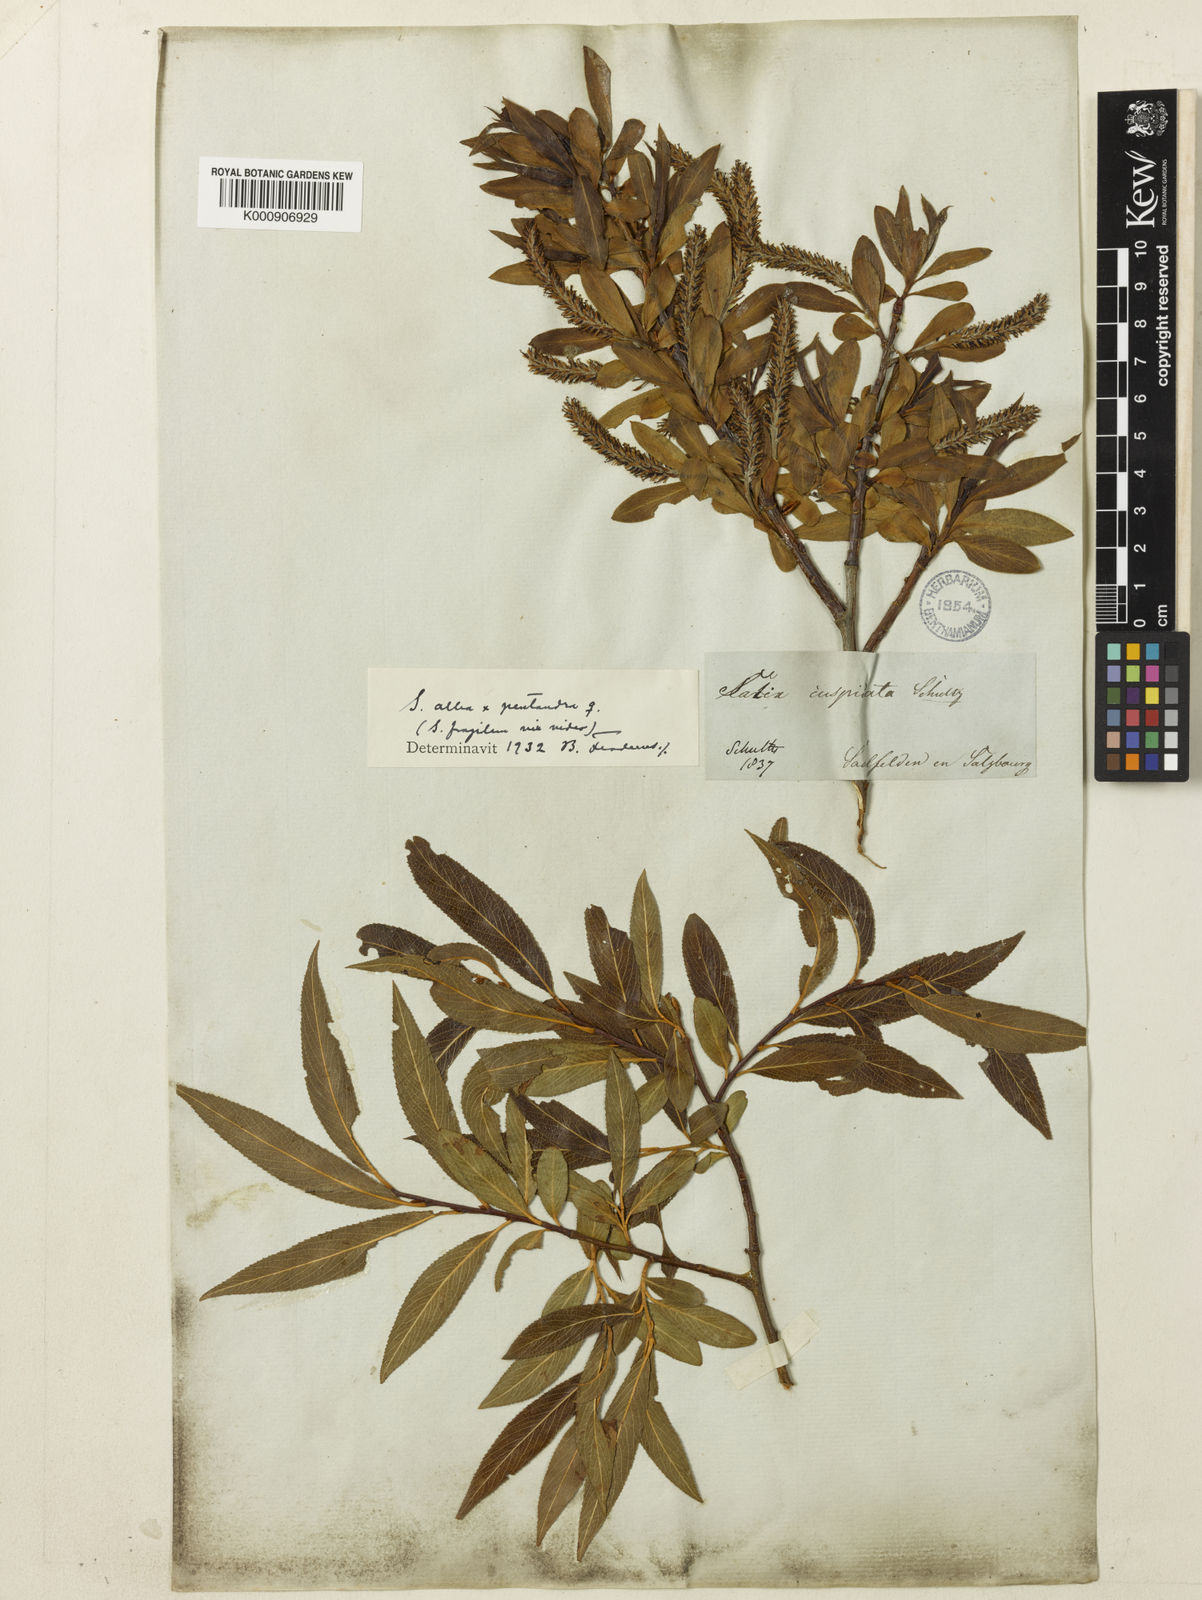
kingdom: Plantae
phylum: Tracheophyta
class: Magnoliopsida
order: Malpighiales
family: Salicaceae
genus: Salix
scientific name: Salix alba
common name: White willow
